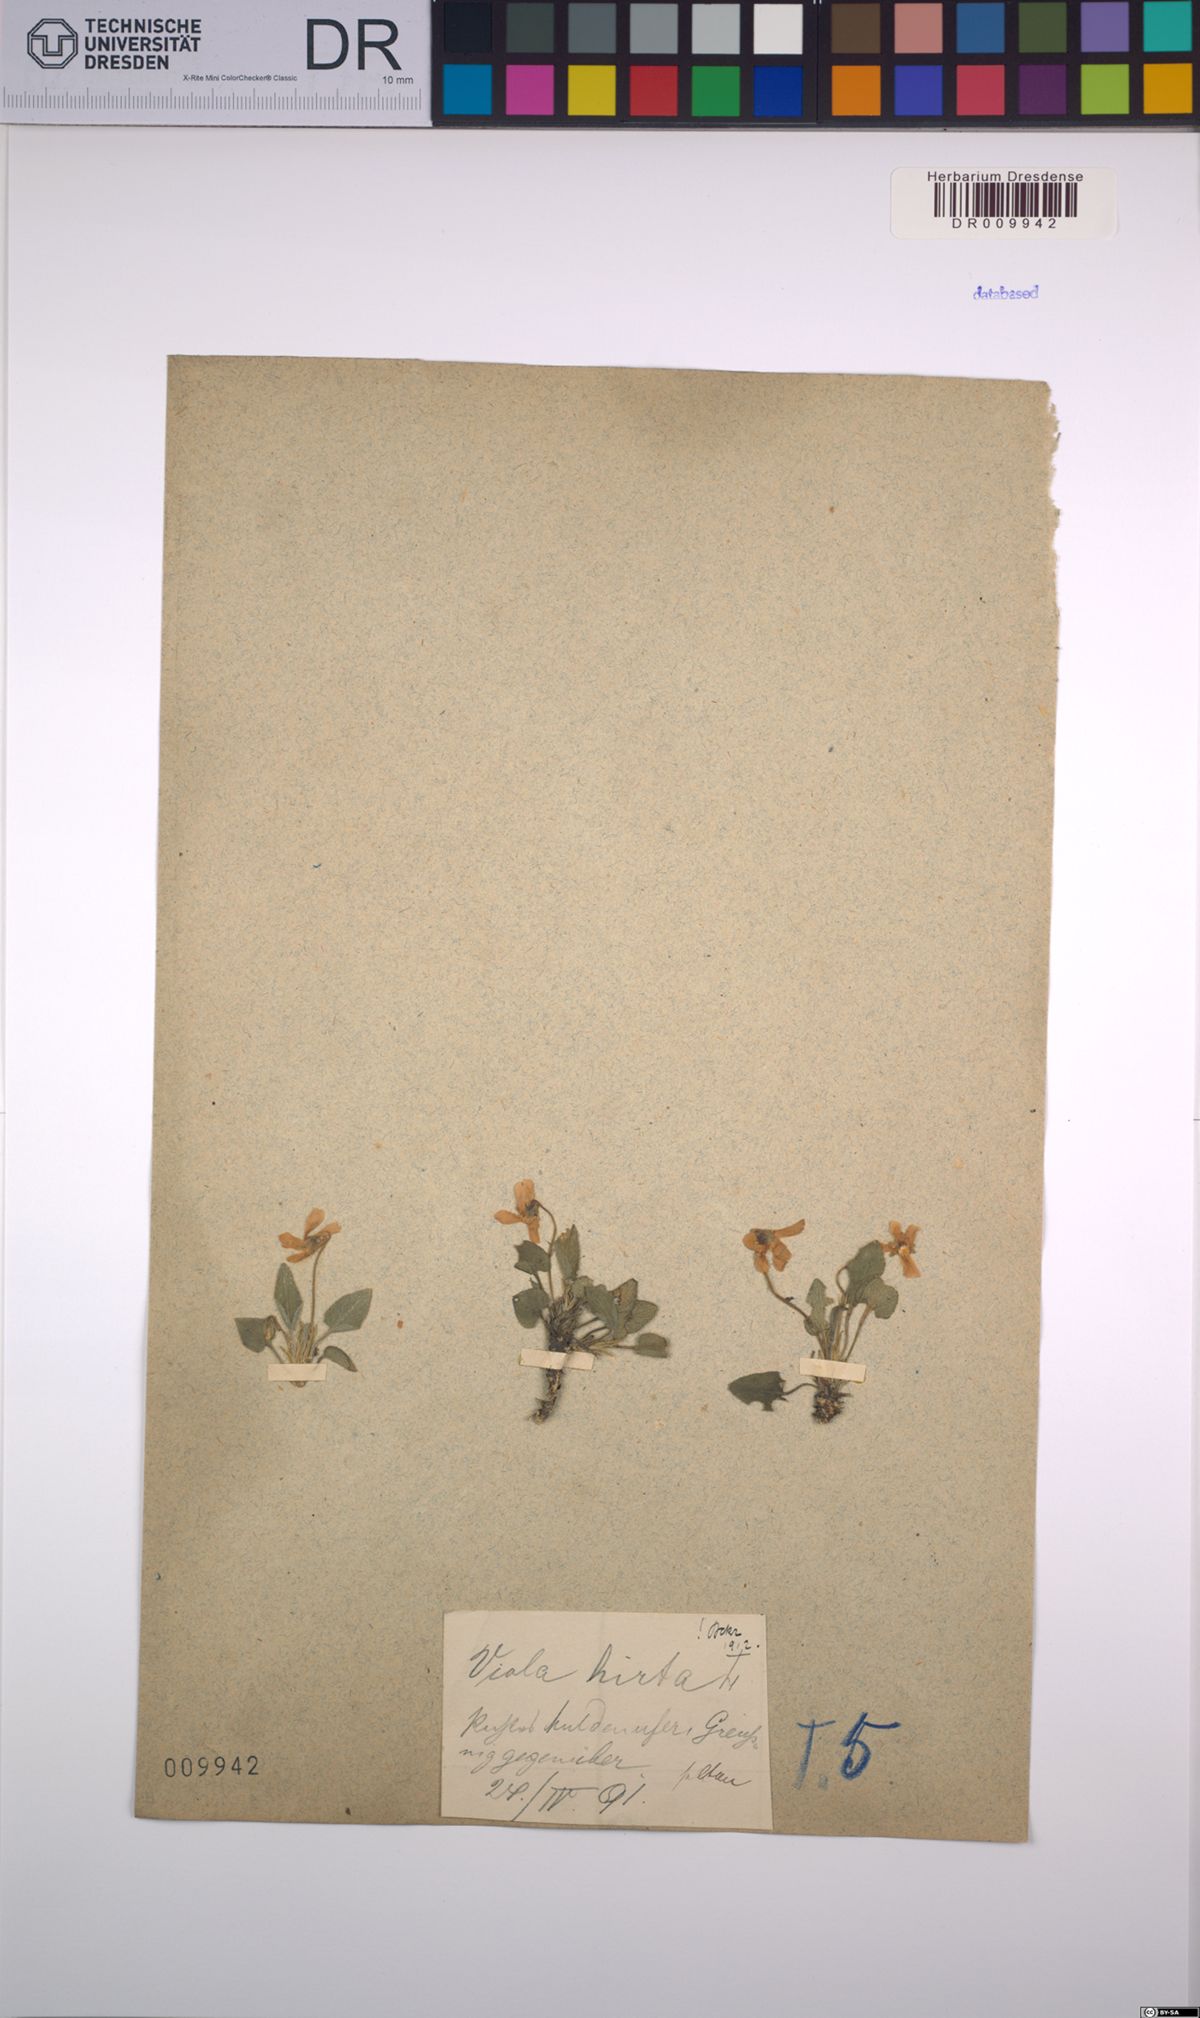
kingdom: Plantae
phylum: Tracheophyta
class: Magnoliopsida
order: Malpighiales
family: Violaceae
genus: Viola
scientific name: Viola hirta
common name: Hairy violet
